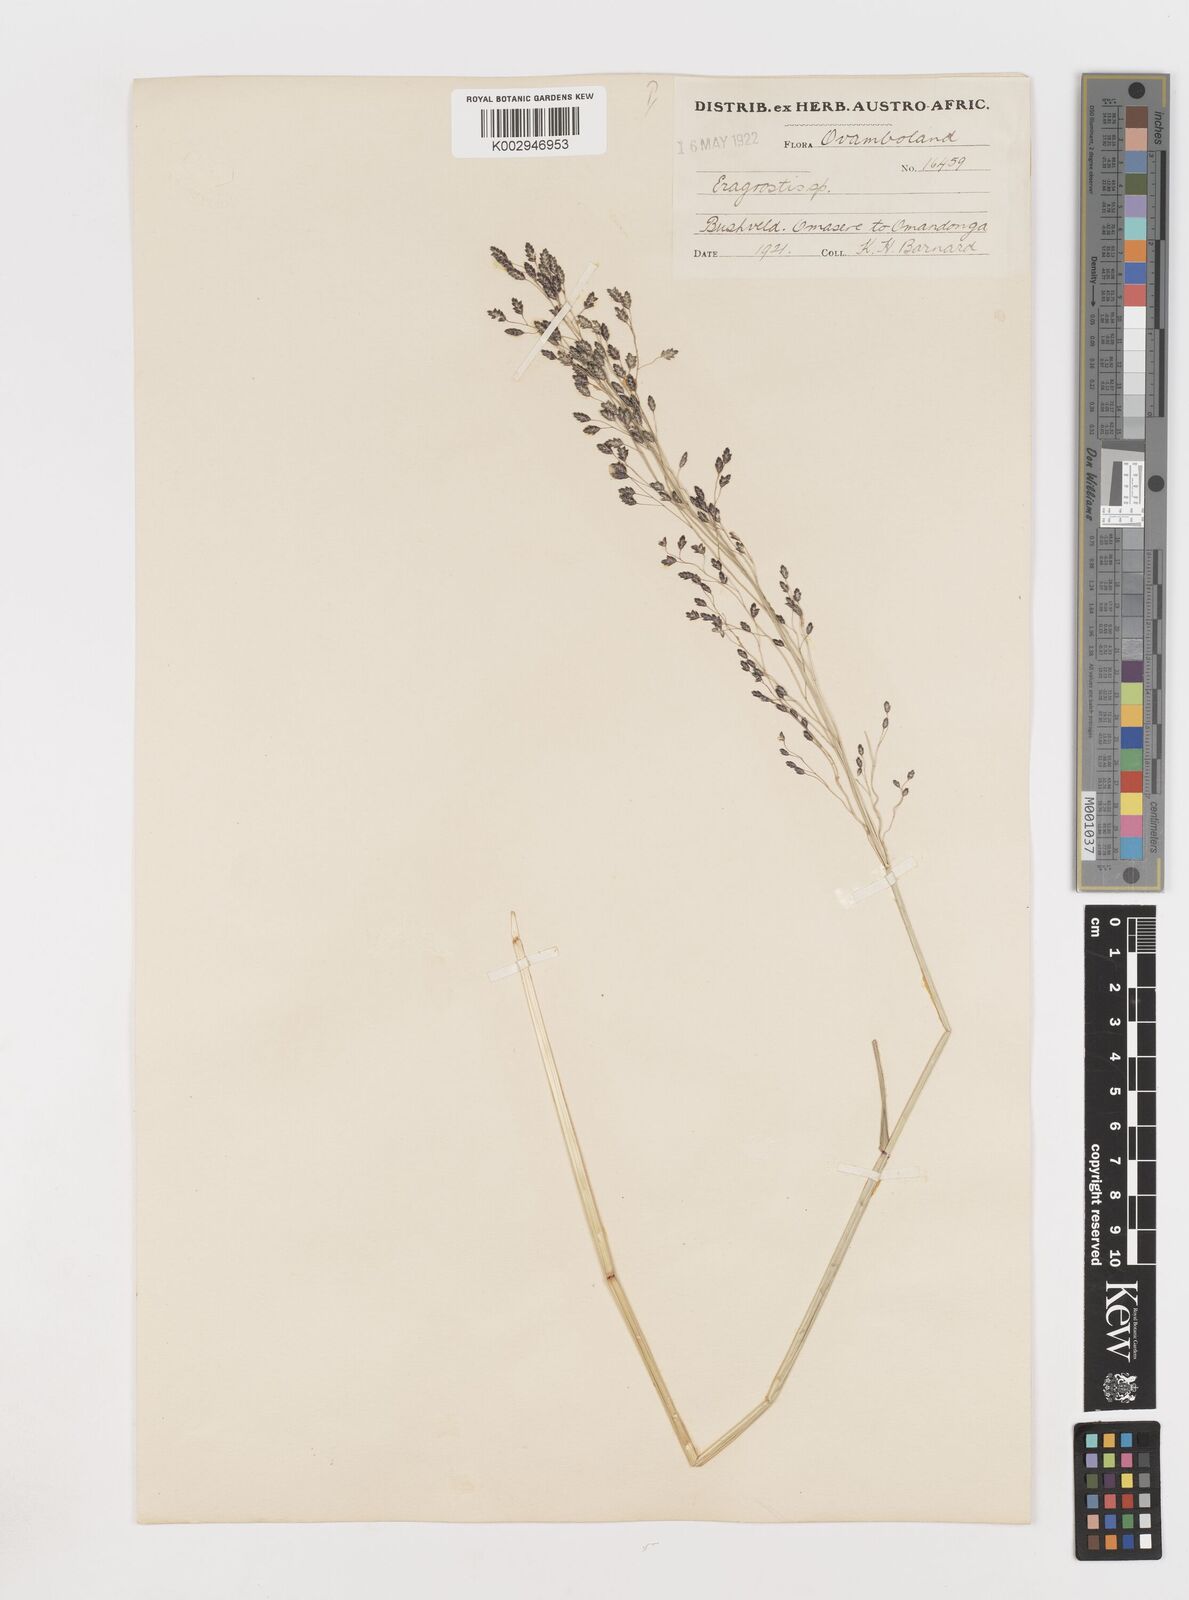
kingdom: Plantae
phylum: Tracheophyta
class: Liliopsida
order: Poales
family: Poaceae
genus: Eragrostis
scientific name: Eragrostis membranacea
